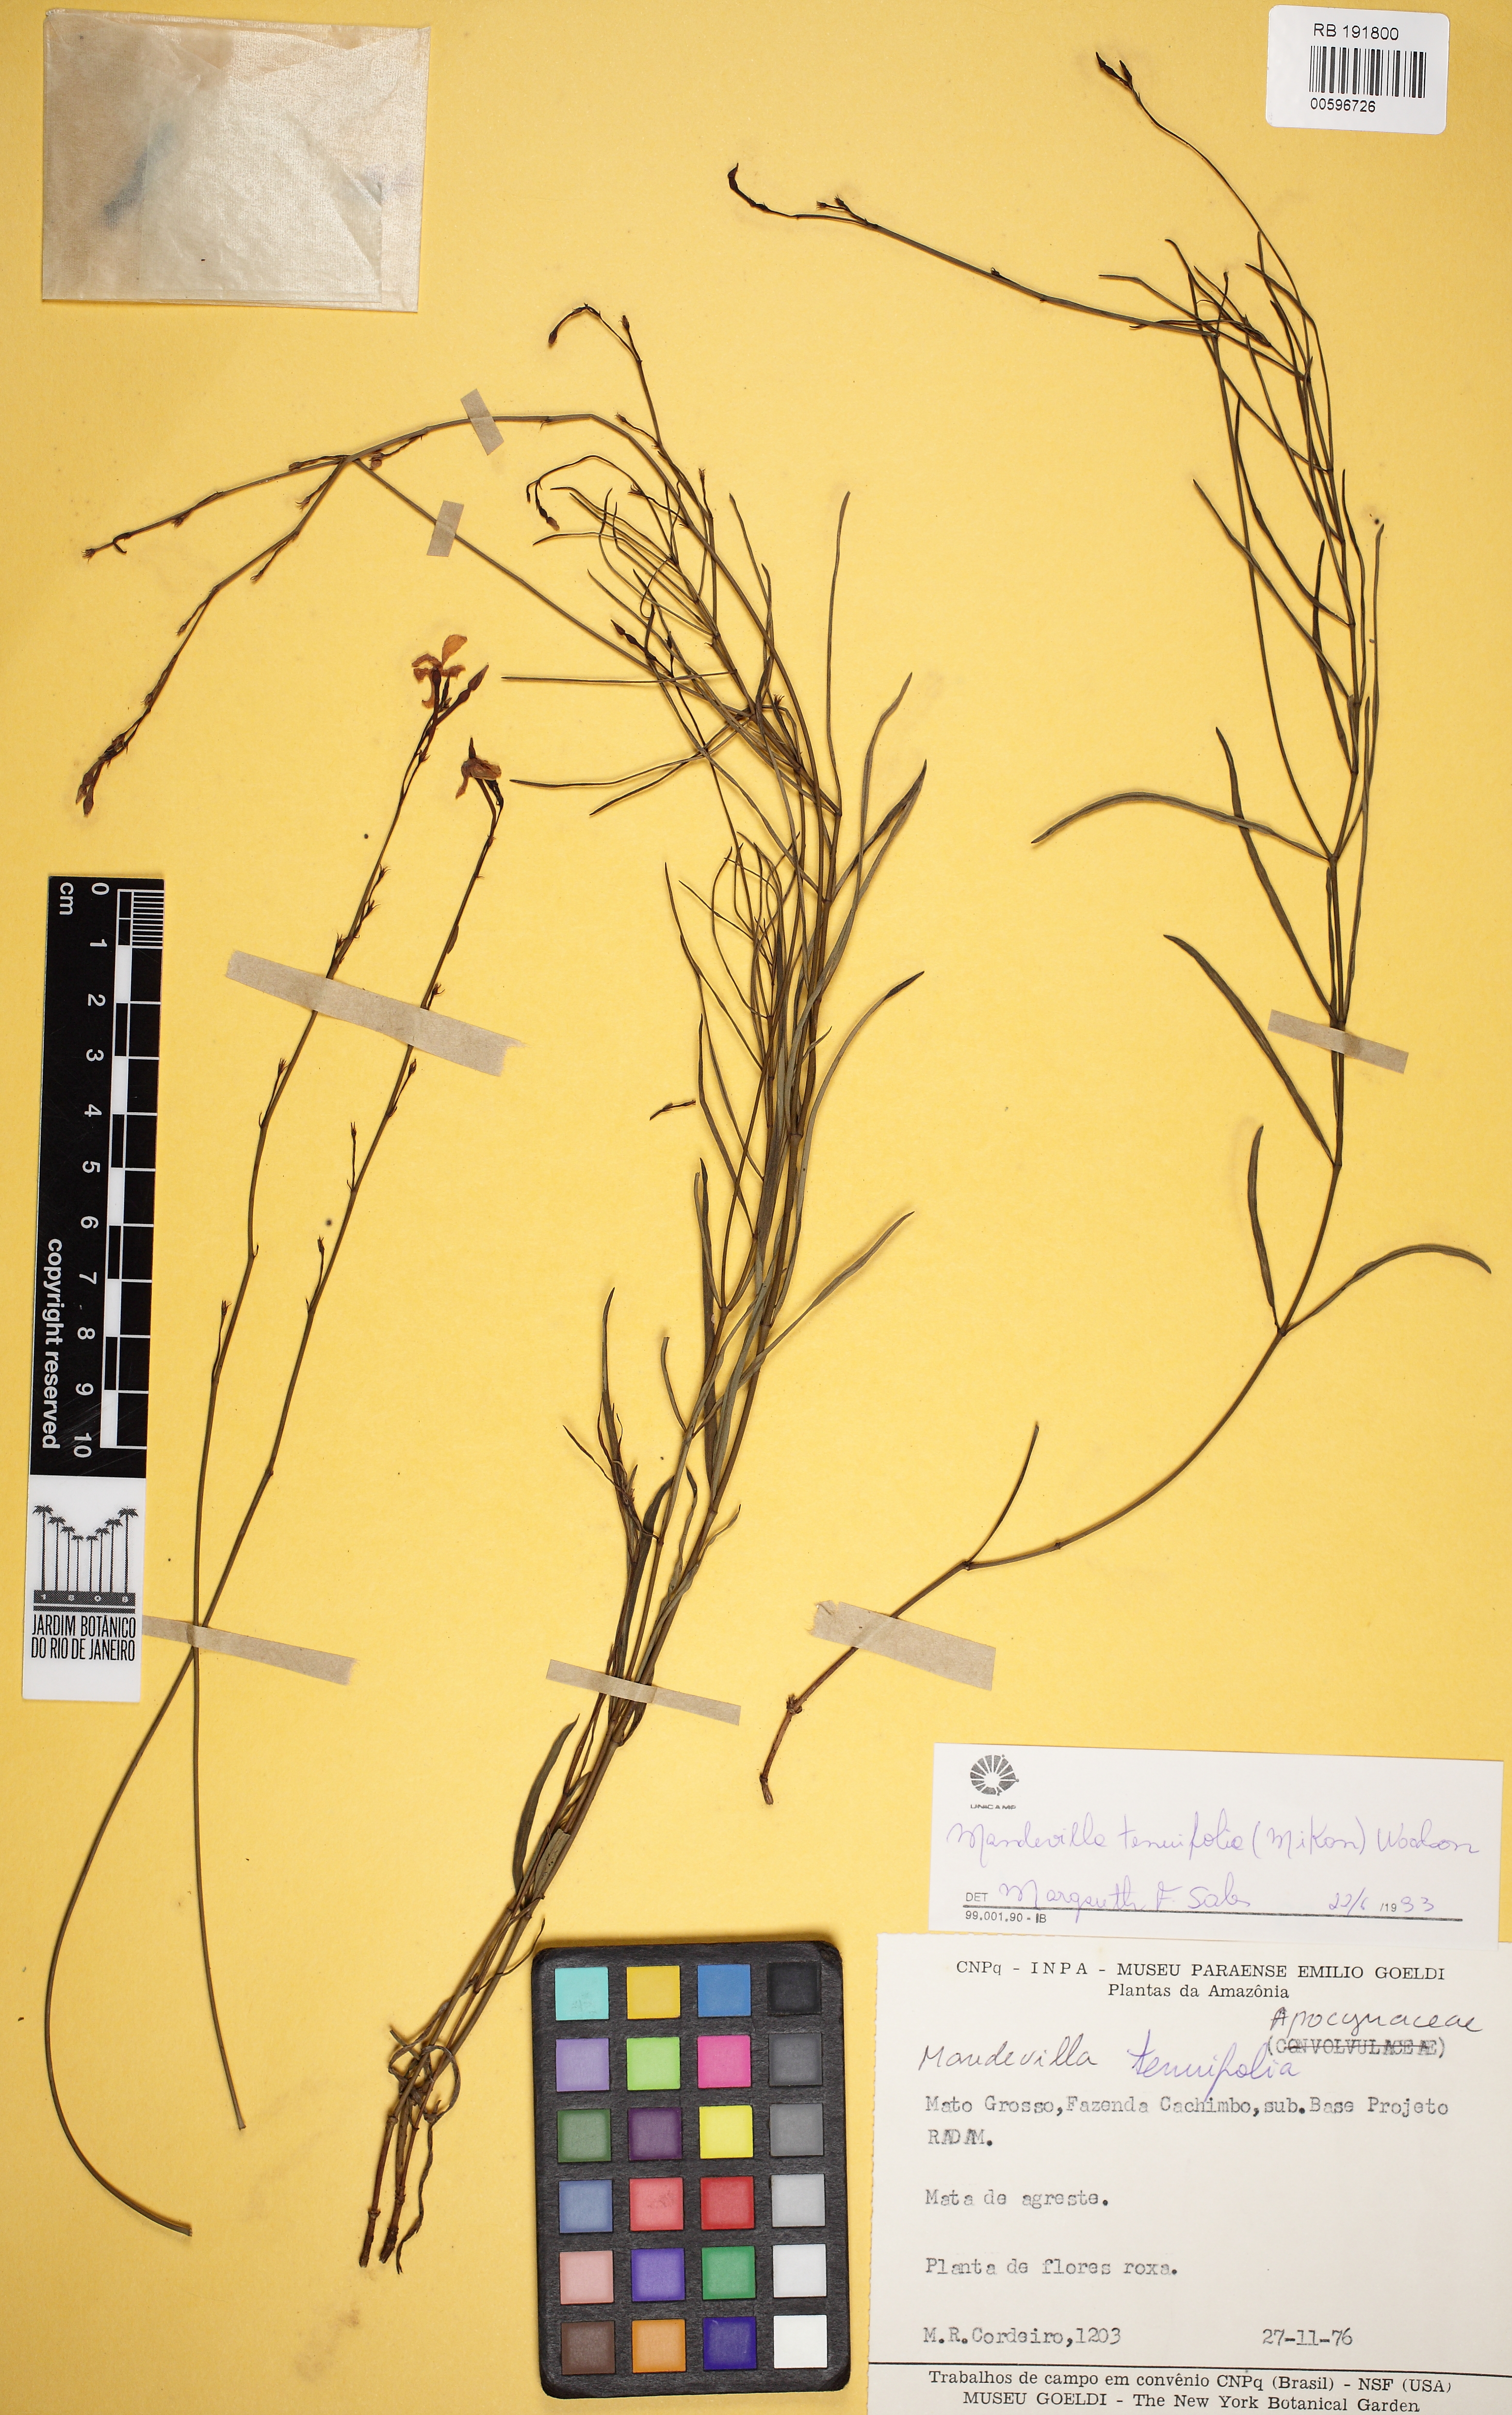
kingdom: Plantae
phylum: Tracheophyta
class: Magnoliopsida
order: Gentianales
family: Apocynaceae
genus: Mandevilla
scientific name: Mandevilla tenuifolia
